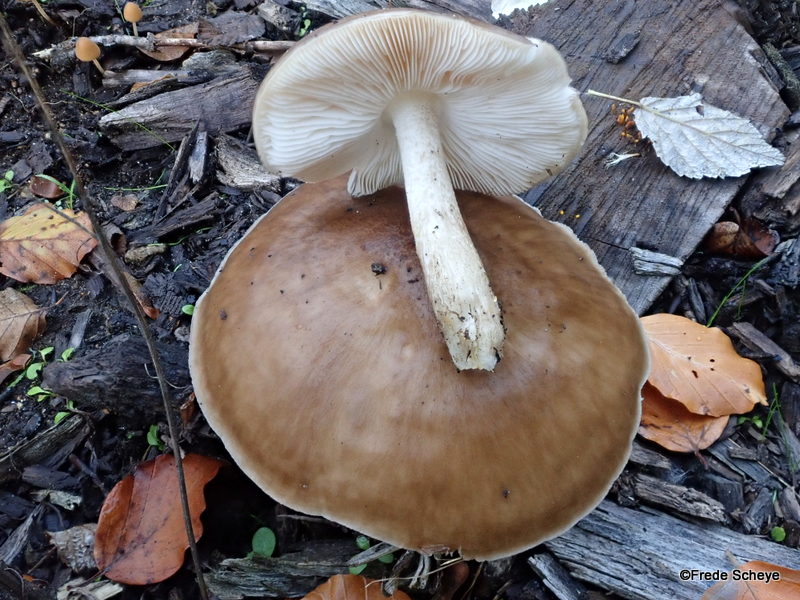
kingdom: Fungi
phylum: Basidiomycota
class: Agaricomycetes
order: Agaricales
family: Pluteaceae
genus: Pluteus
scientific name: Pluteus cervinus
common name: sodfarvet skærmhat
